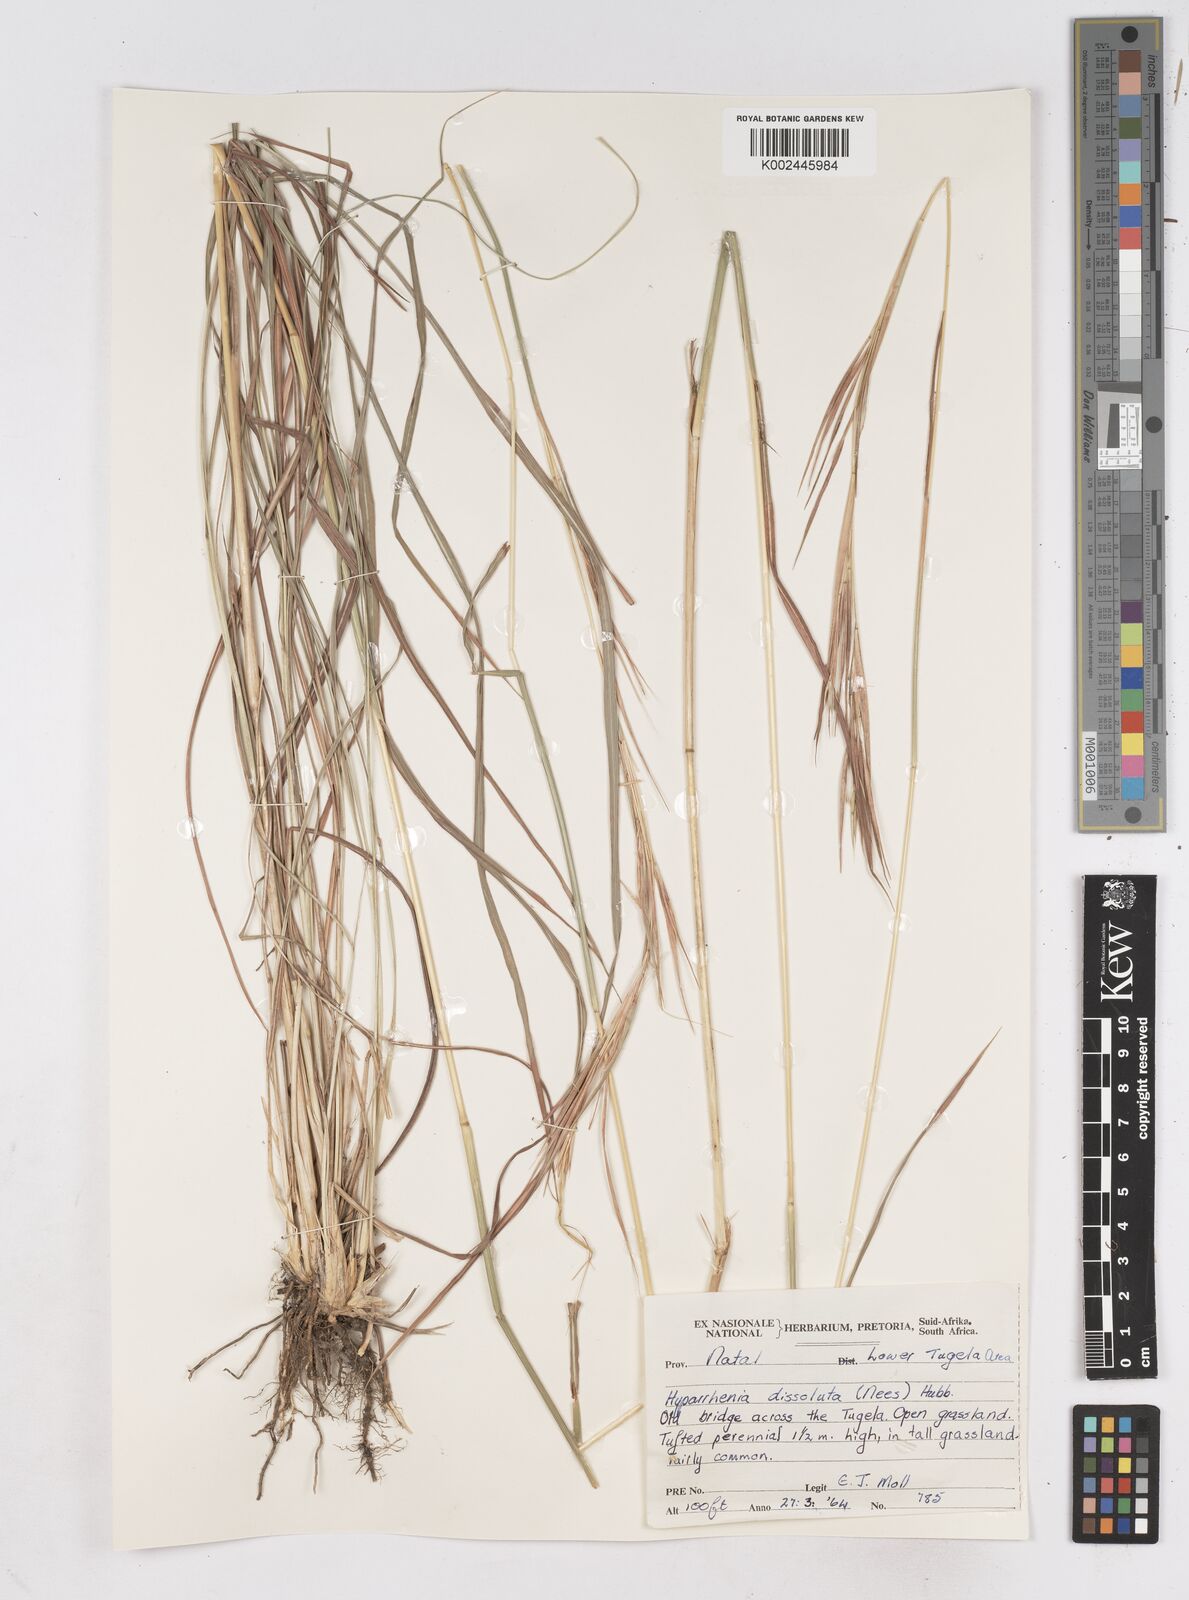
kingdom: Plantae
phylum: Tracheophyta
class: Liliopsida
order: Poales
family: Poaceae
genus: Hyperthelia
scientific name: Hyperthelia dissoluta
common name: Yellow thatching grass
